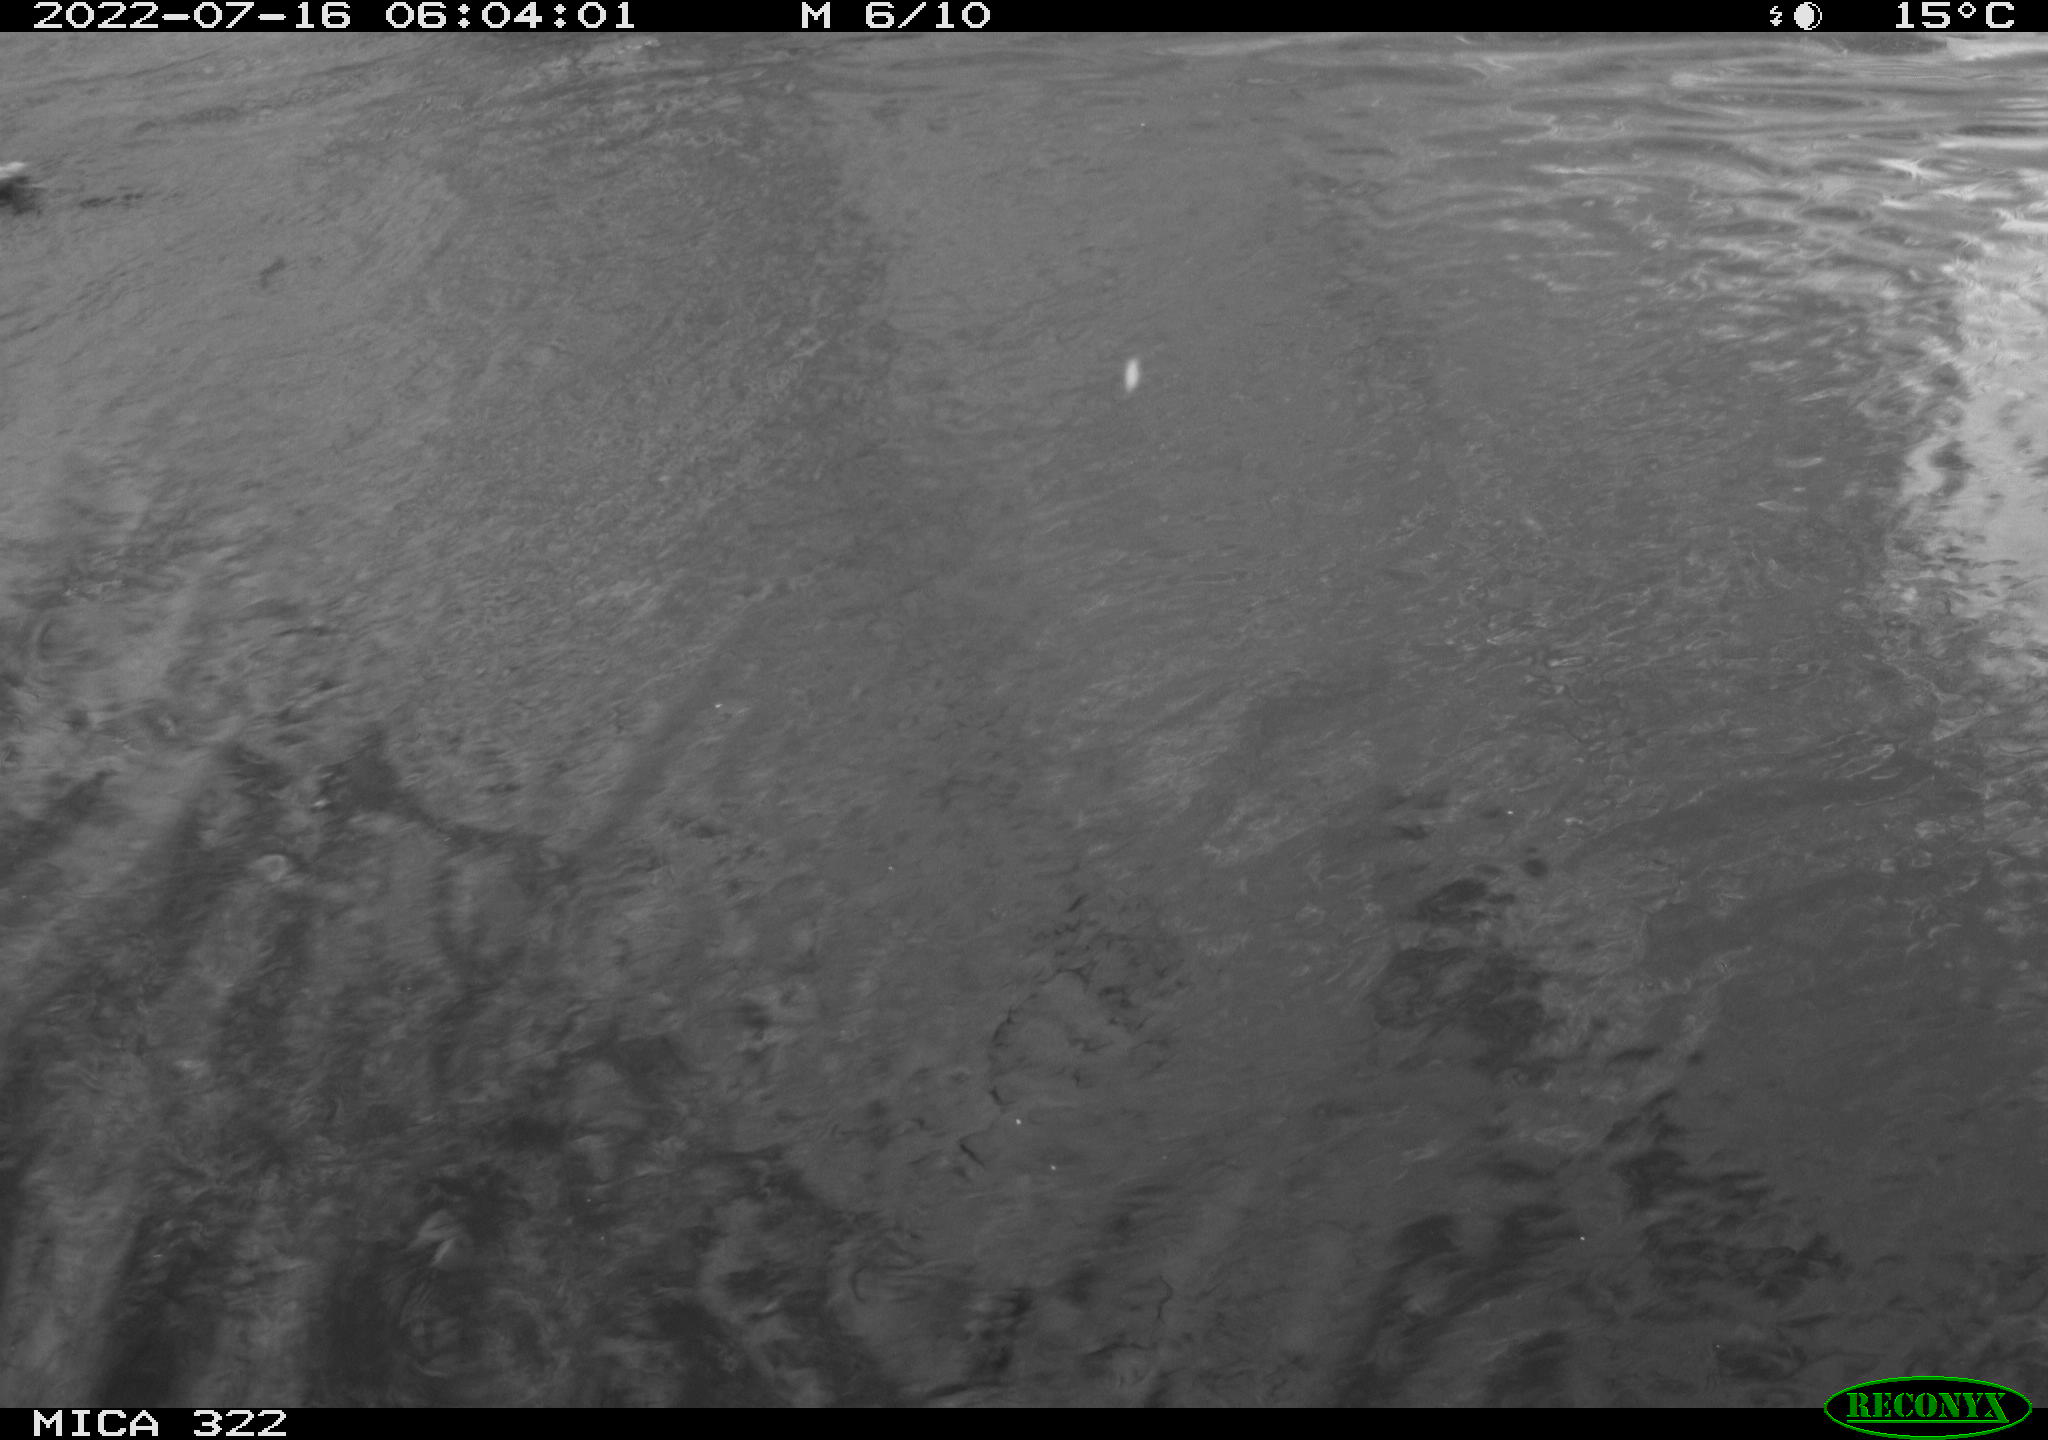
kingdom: Animalia
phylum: Chordata
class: Aves
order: Anseriformes
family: Anatidae
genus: Mareca
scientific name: Mareca strepera
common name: Gadwall
